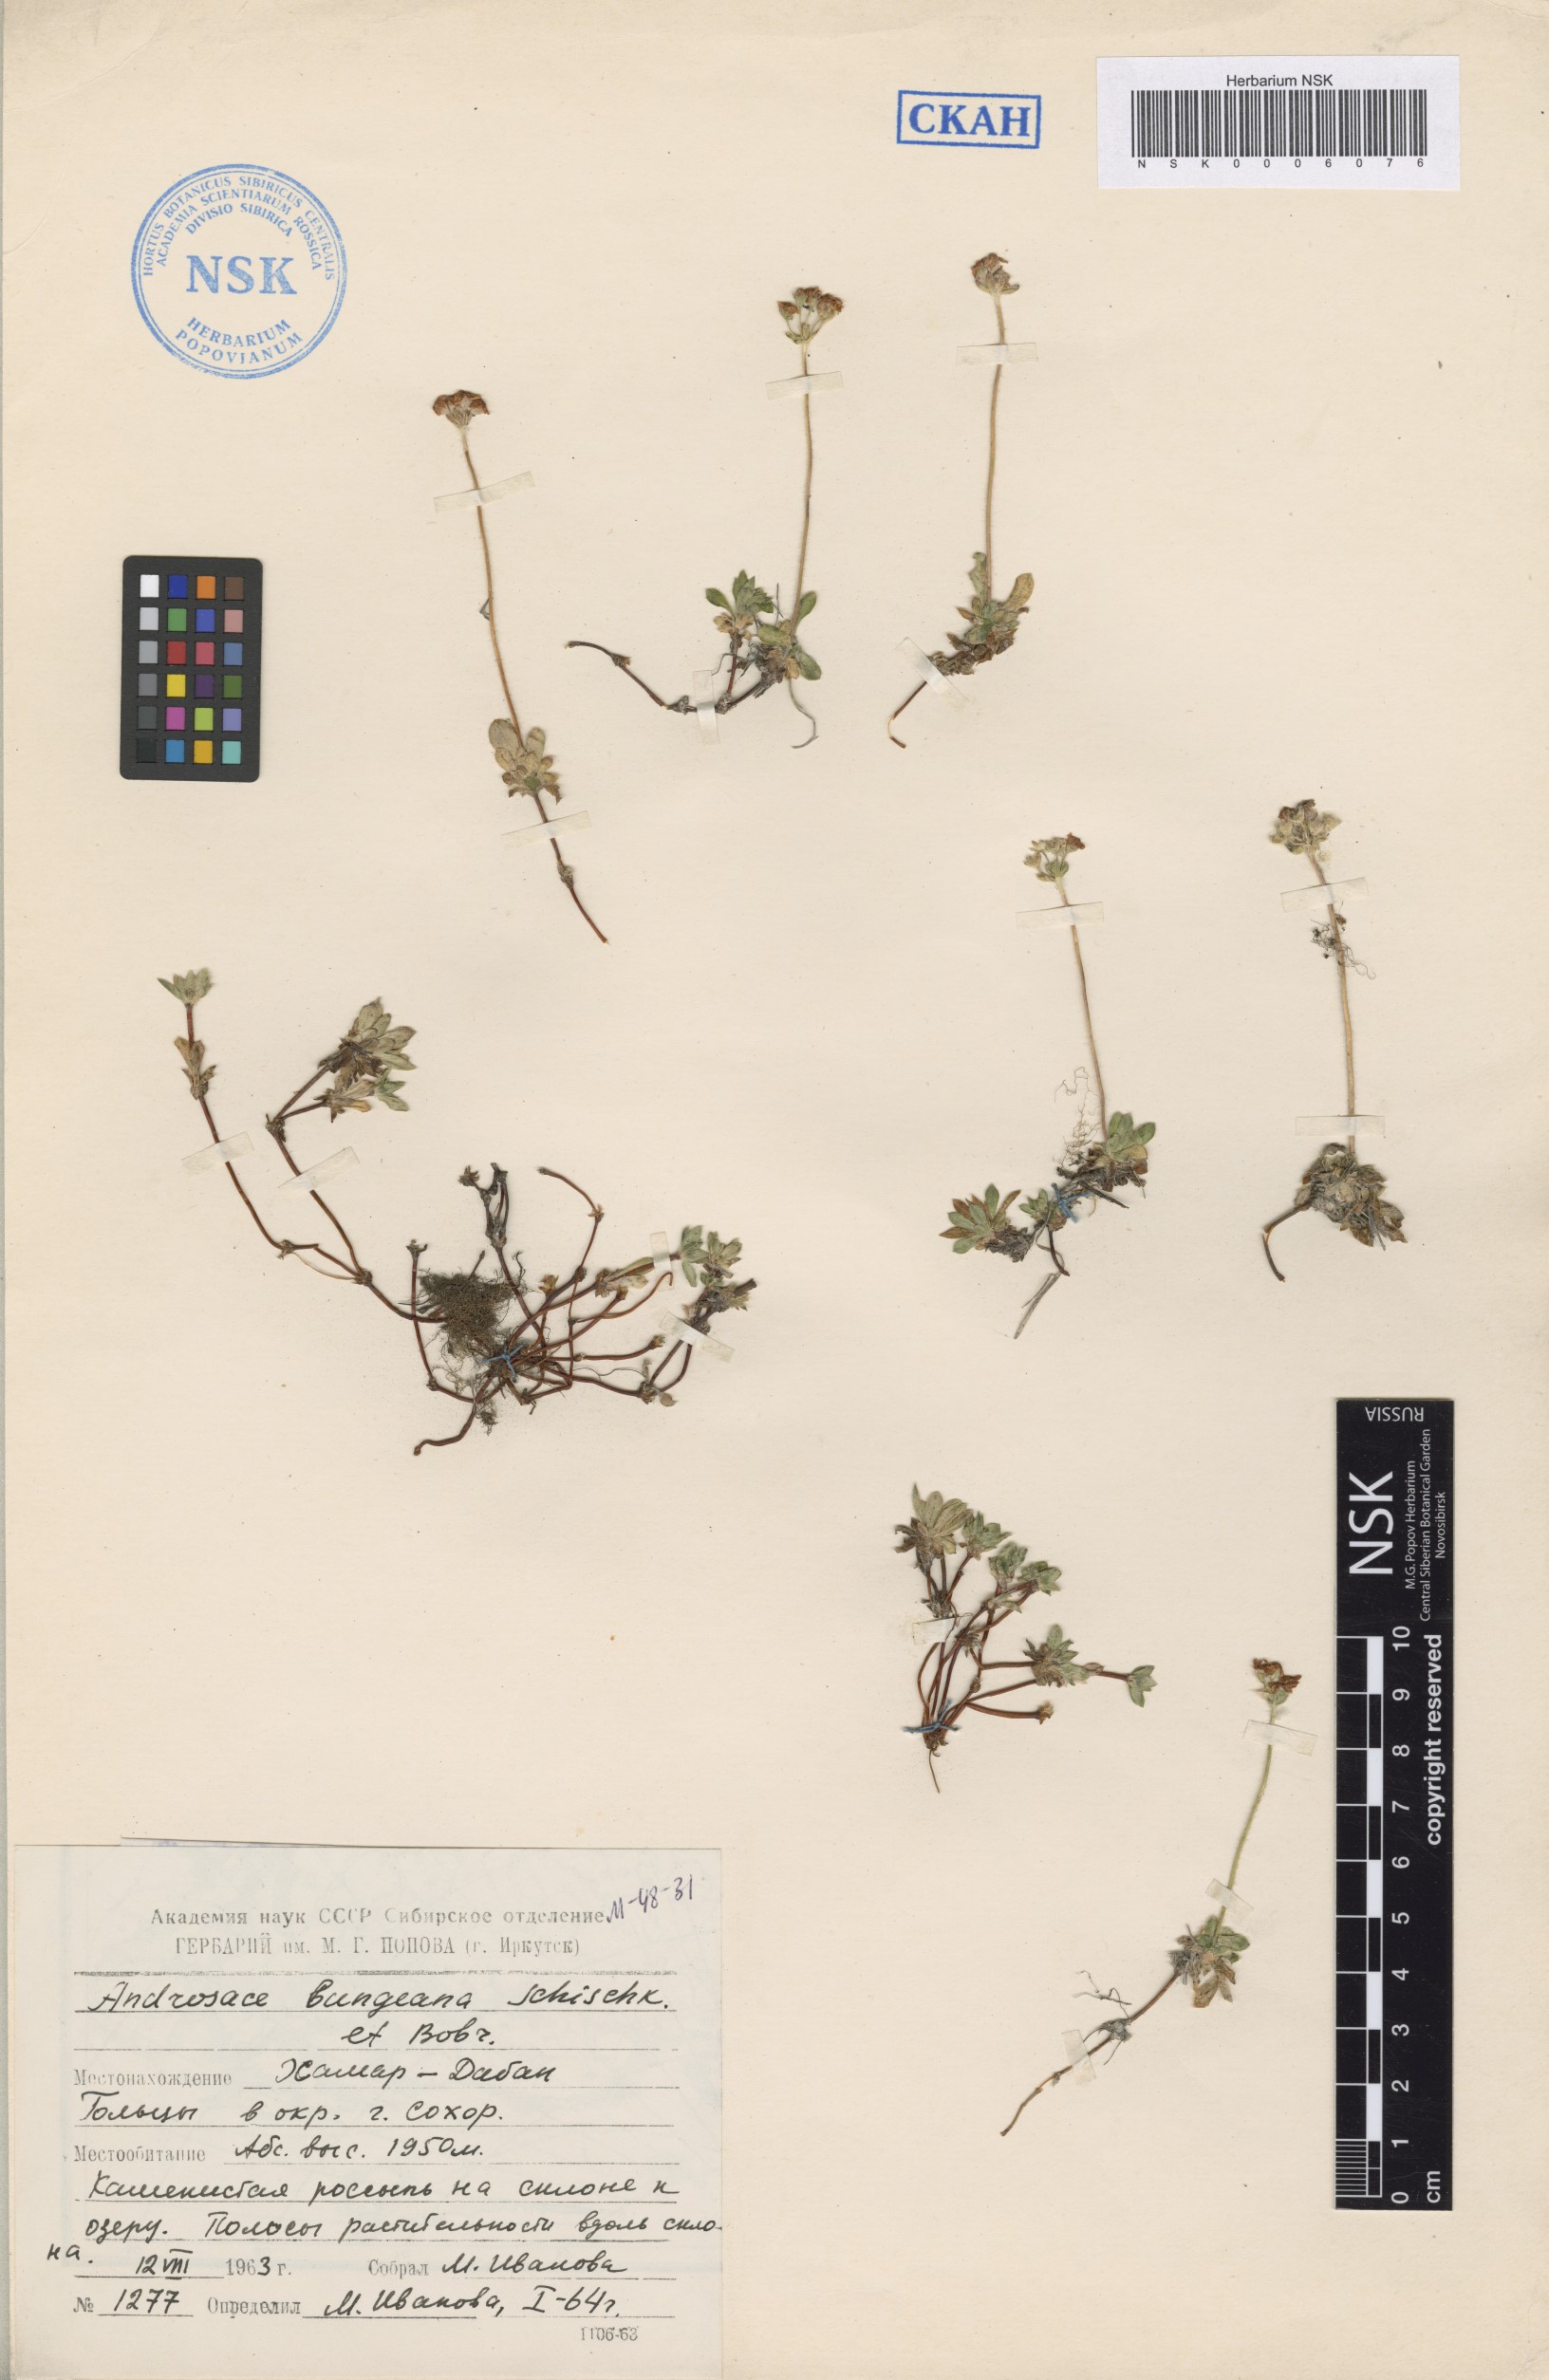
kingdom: Plantae
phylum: Tracheophyta
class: Magnoliopsida
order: Ericales
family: Primulaceae
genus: Androsace
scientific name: Androsace bungeana
